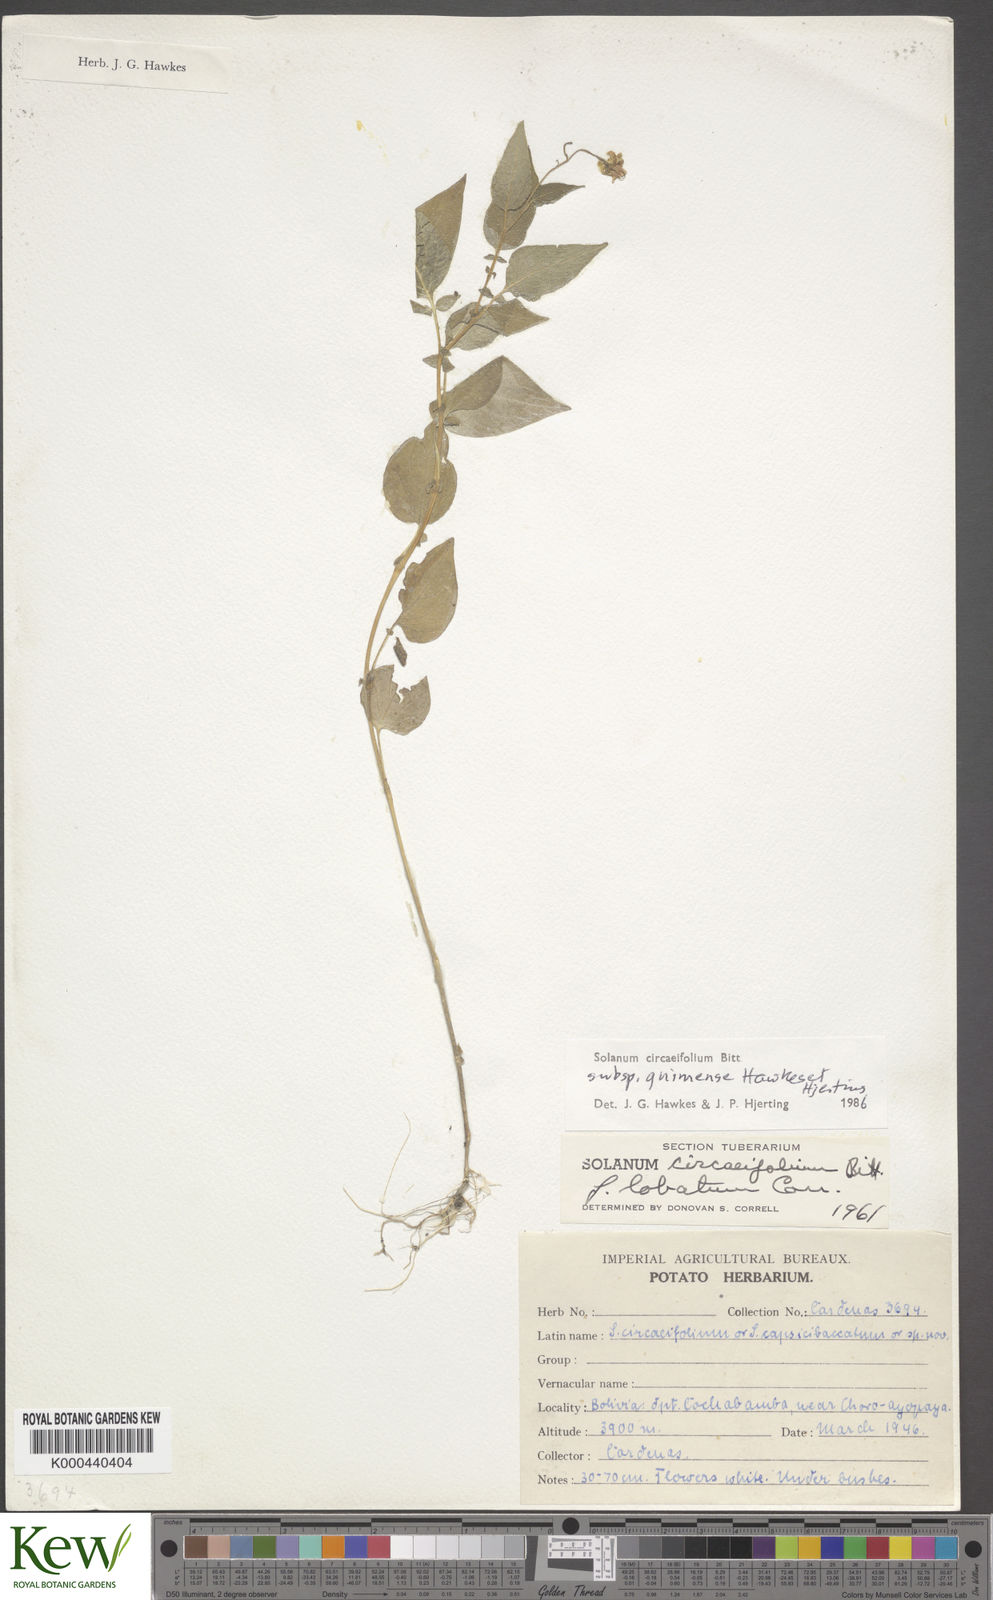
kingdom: Plantae
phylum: Tracheophyta
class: Magnoliopsida
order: Solanales
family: Solanaceae
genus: Solanum
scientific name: Solanum stipuloideum
